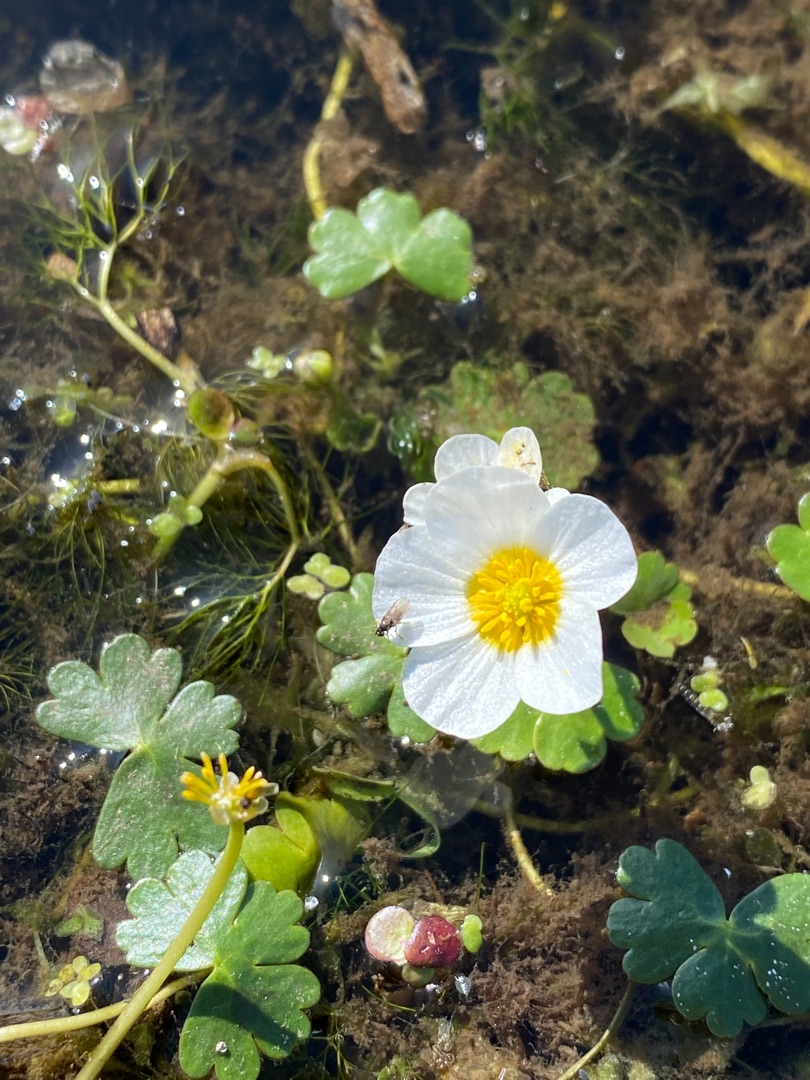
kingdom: Plantae
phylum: Tracheophyta
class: Magnoliopsida
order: Ranunculales
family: Ranunculaceae
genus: Ranunculus
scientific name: Ranunculus peltatus
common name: Storblomstret vandranunkel
